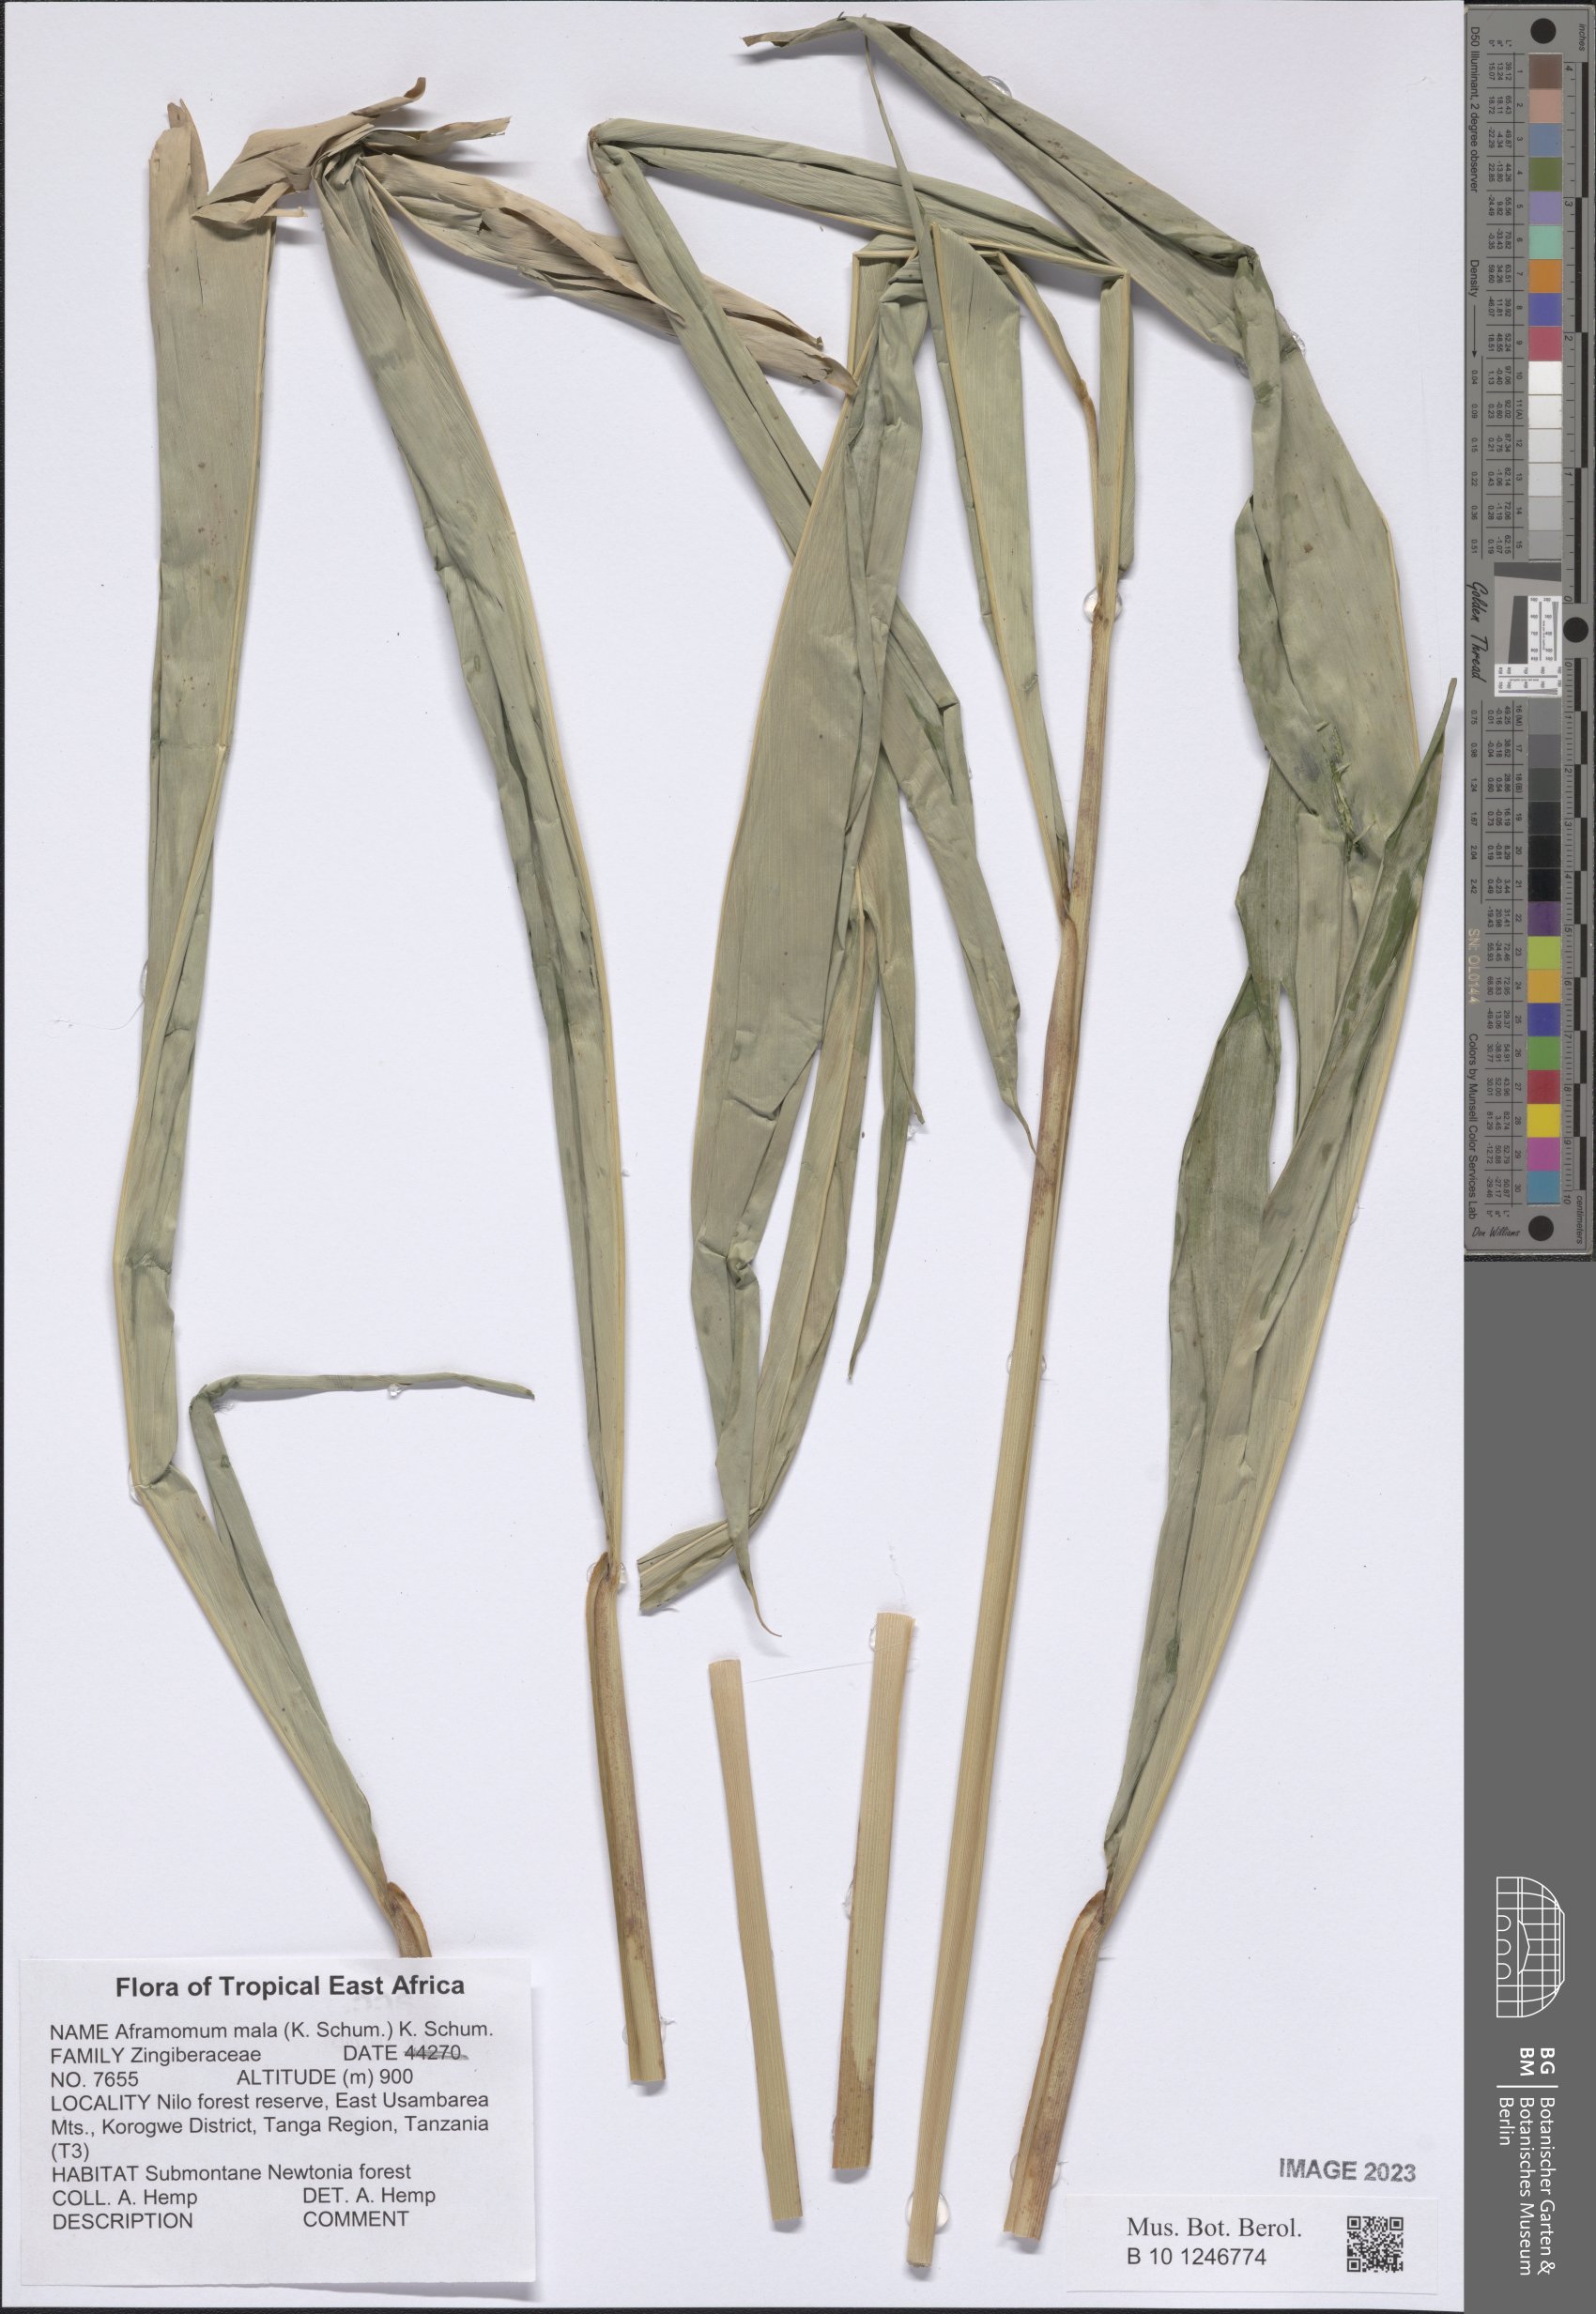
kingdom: Plantae
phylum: Tracheophyta
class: Liliopsida
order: Zingiberales
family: Zingiberaceae
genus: Aframomum
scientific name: Aframomum mala
